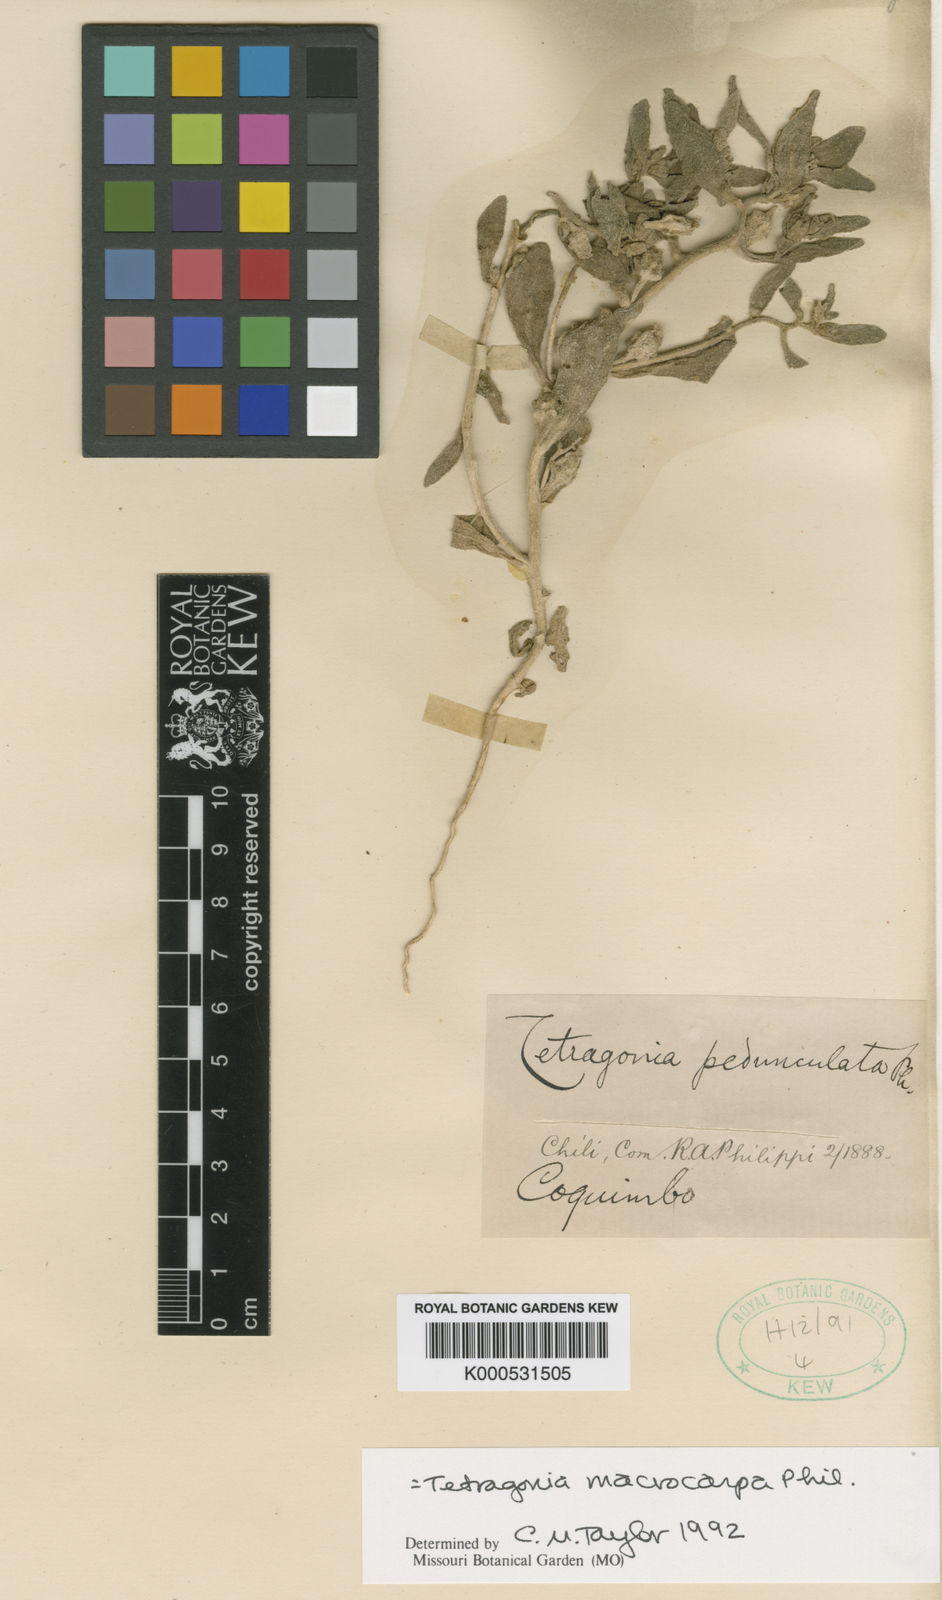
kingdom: Plantae
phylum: Tracheophyta
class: Magnoliopsida
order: Caryophyllales
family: Aizoaceae
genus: Tetragonia
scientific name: Tetragonia macrocarpa
